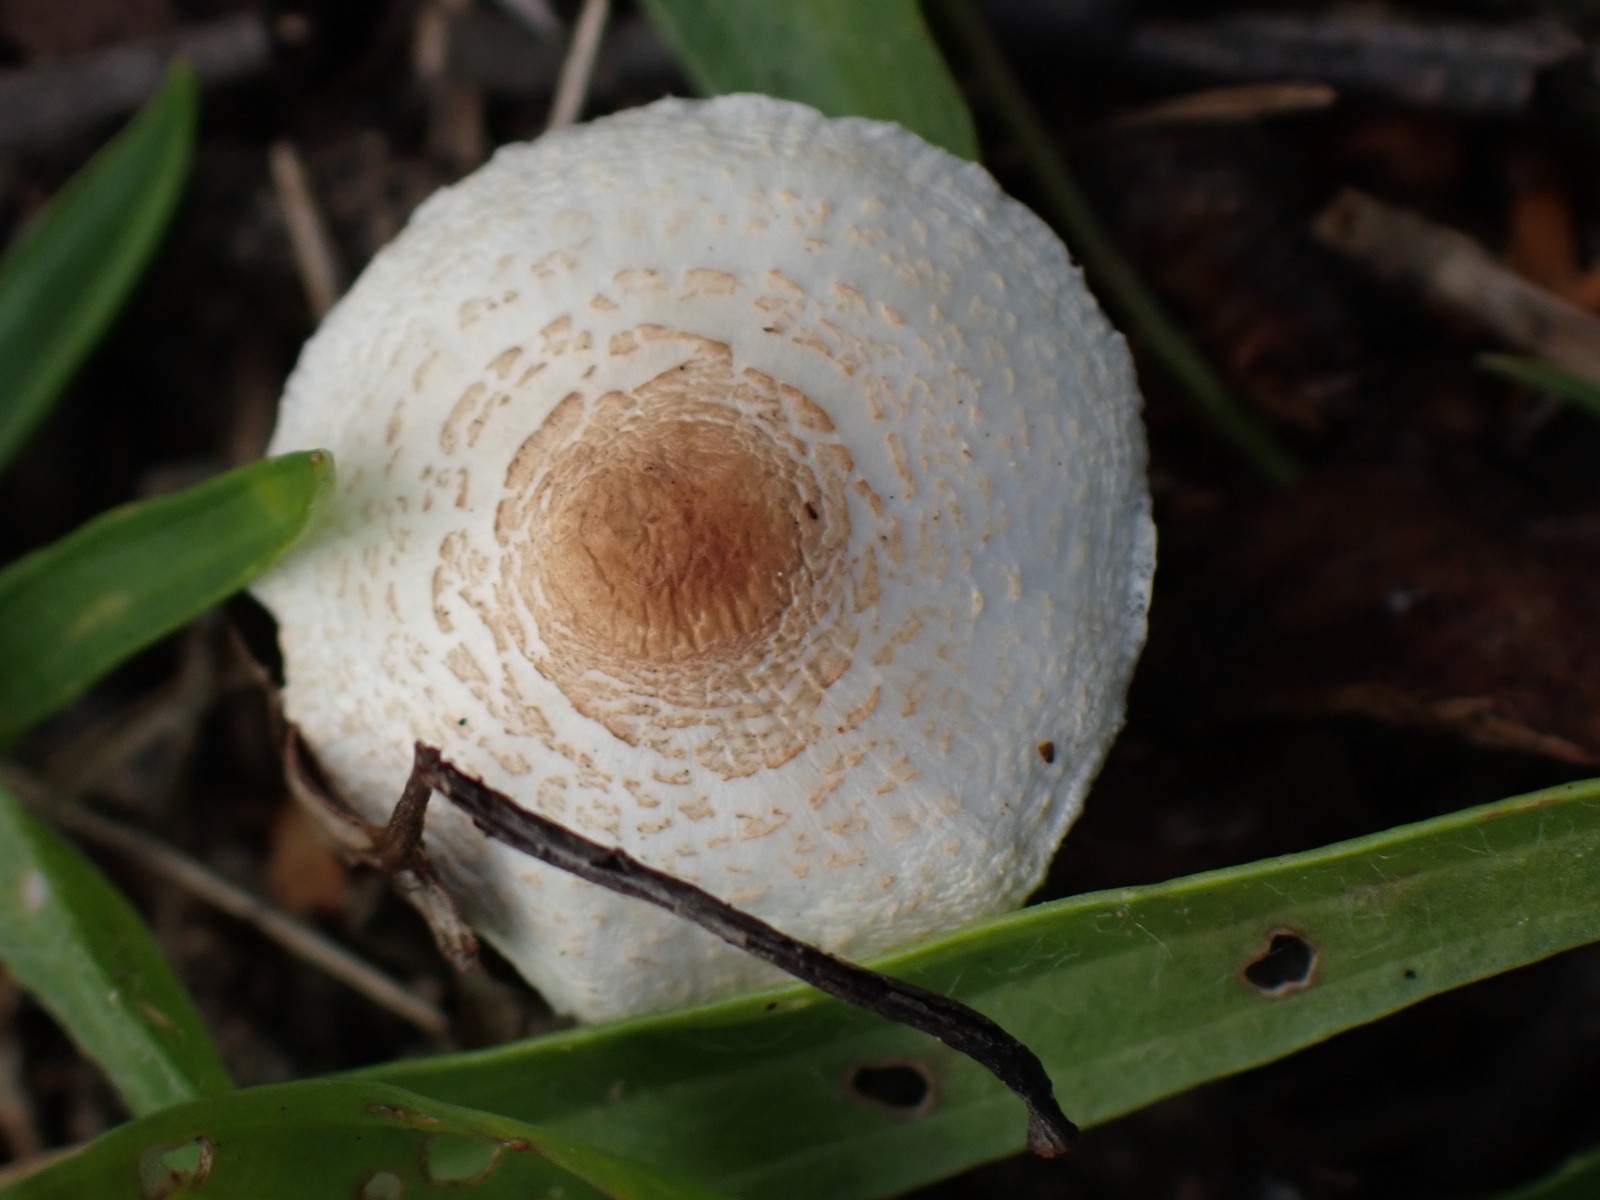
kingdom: Fungi
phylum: Basidiomycota
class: Agaricomycetes
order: Agaricales
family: Agaricaceae
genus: Lepiota
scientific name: Lepiota cristata
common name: stinkende parasolhat
